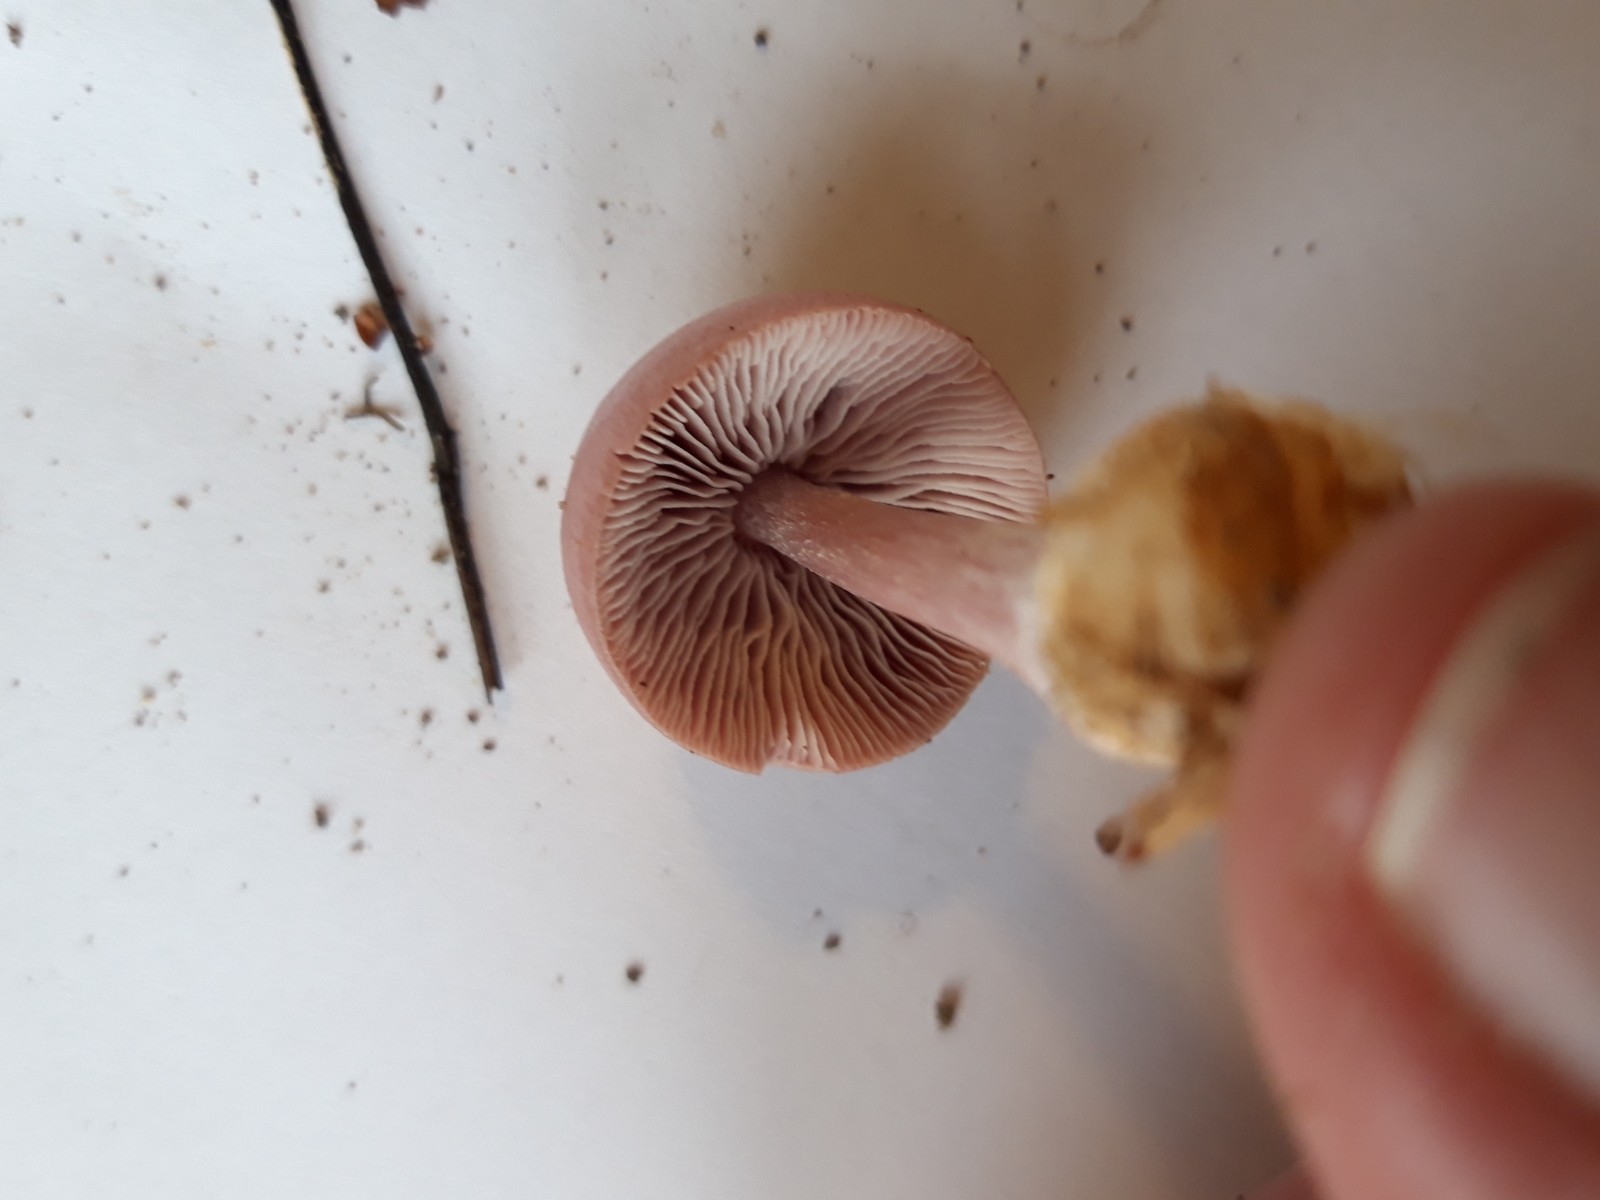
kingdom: Fungi
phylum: Basidiomycota
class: Agaricomycetes
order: Agaricales
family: Mycenaceae
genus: Mycena
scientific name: Mycena rosea
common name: rosa huesvamp
